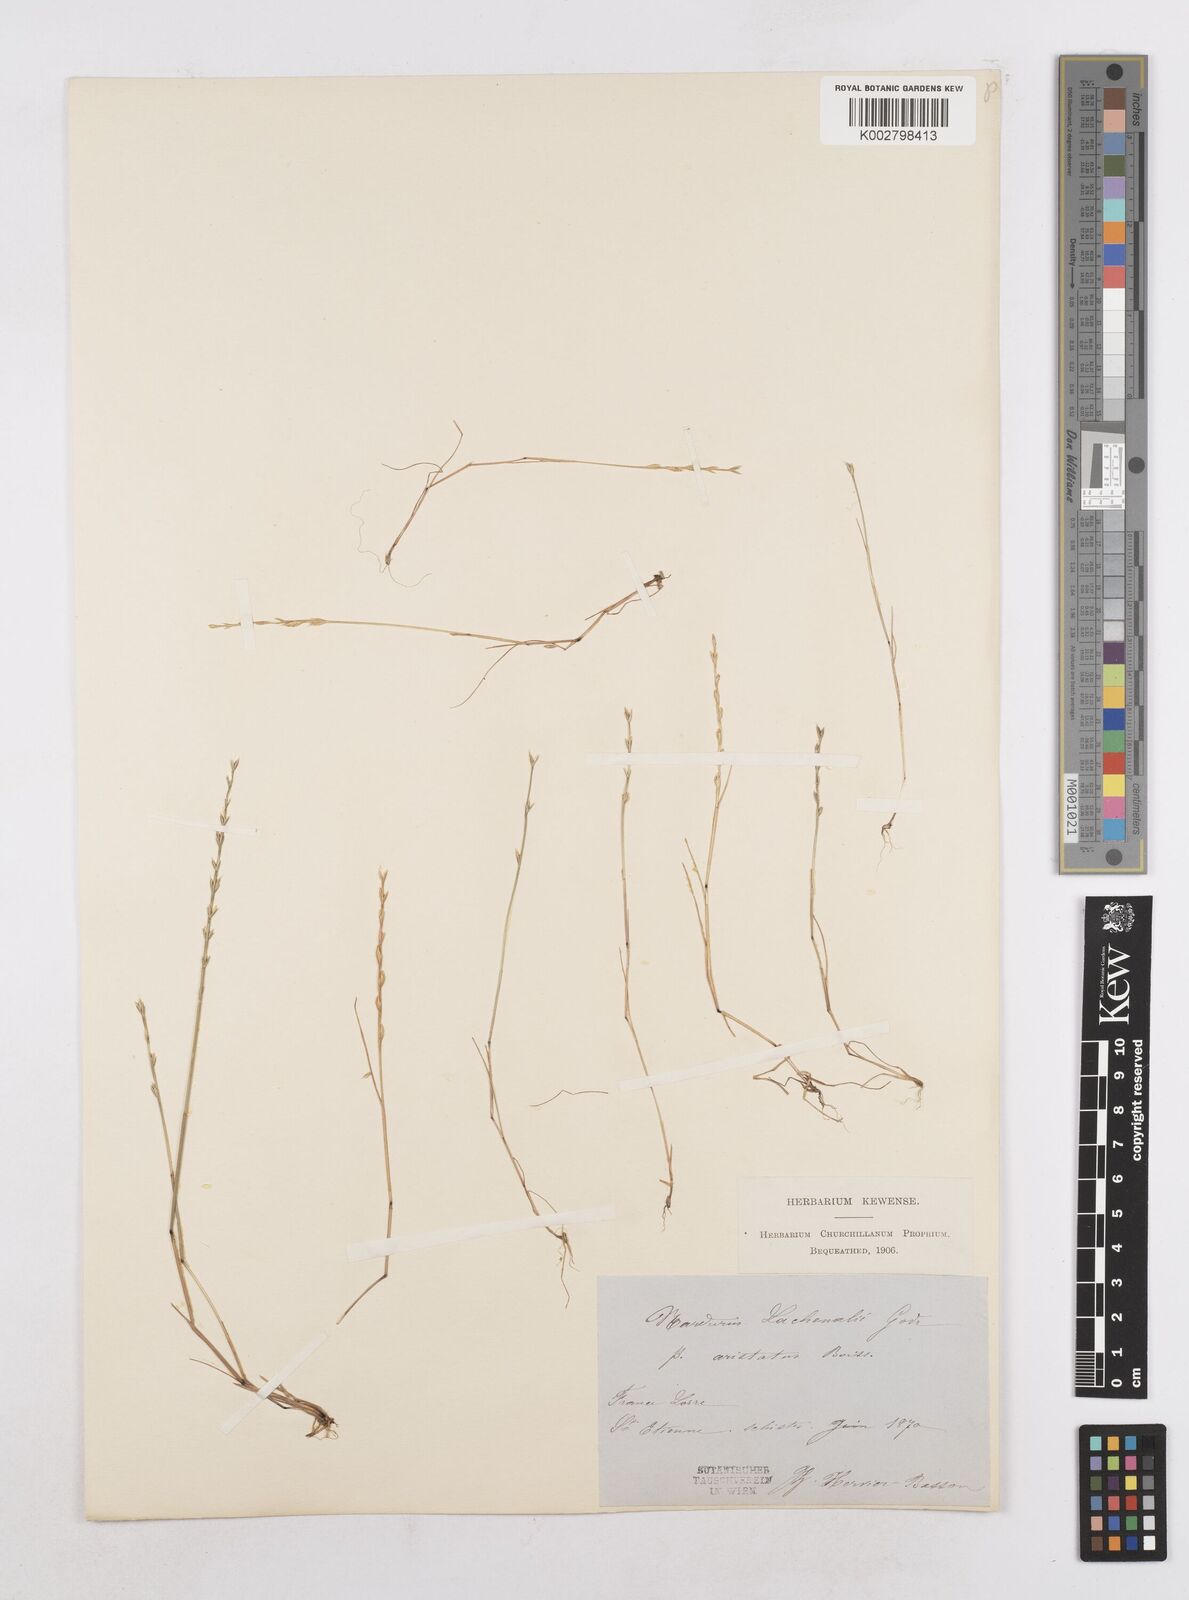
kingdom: Plantae
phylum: Tracheophyta
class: Liliopsida
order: Poales
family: Poaceae
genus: Festuca
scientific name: Festuca lachenalii
